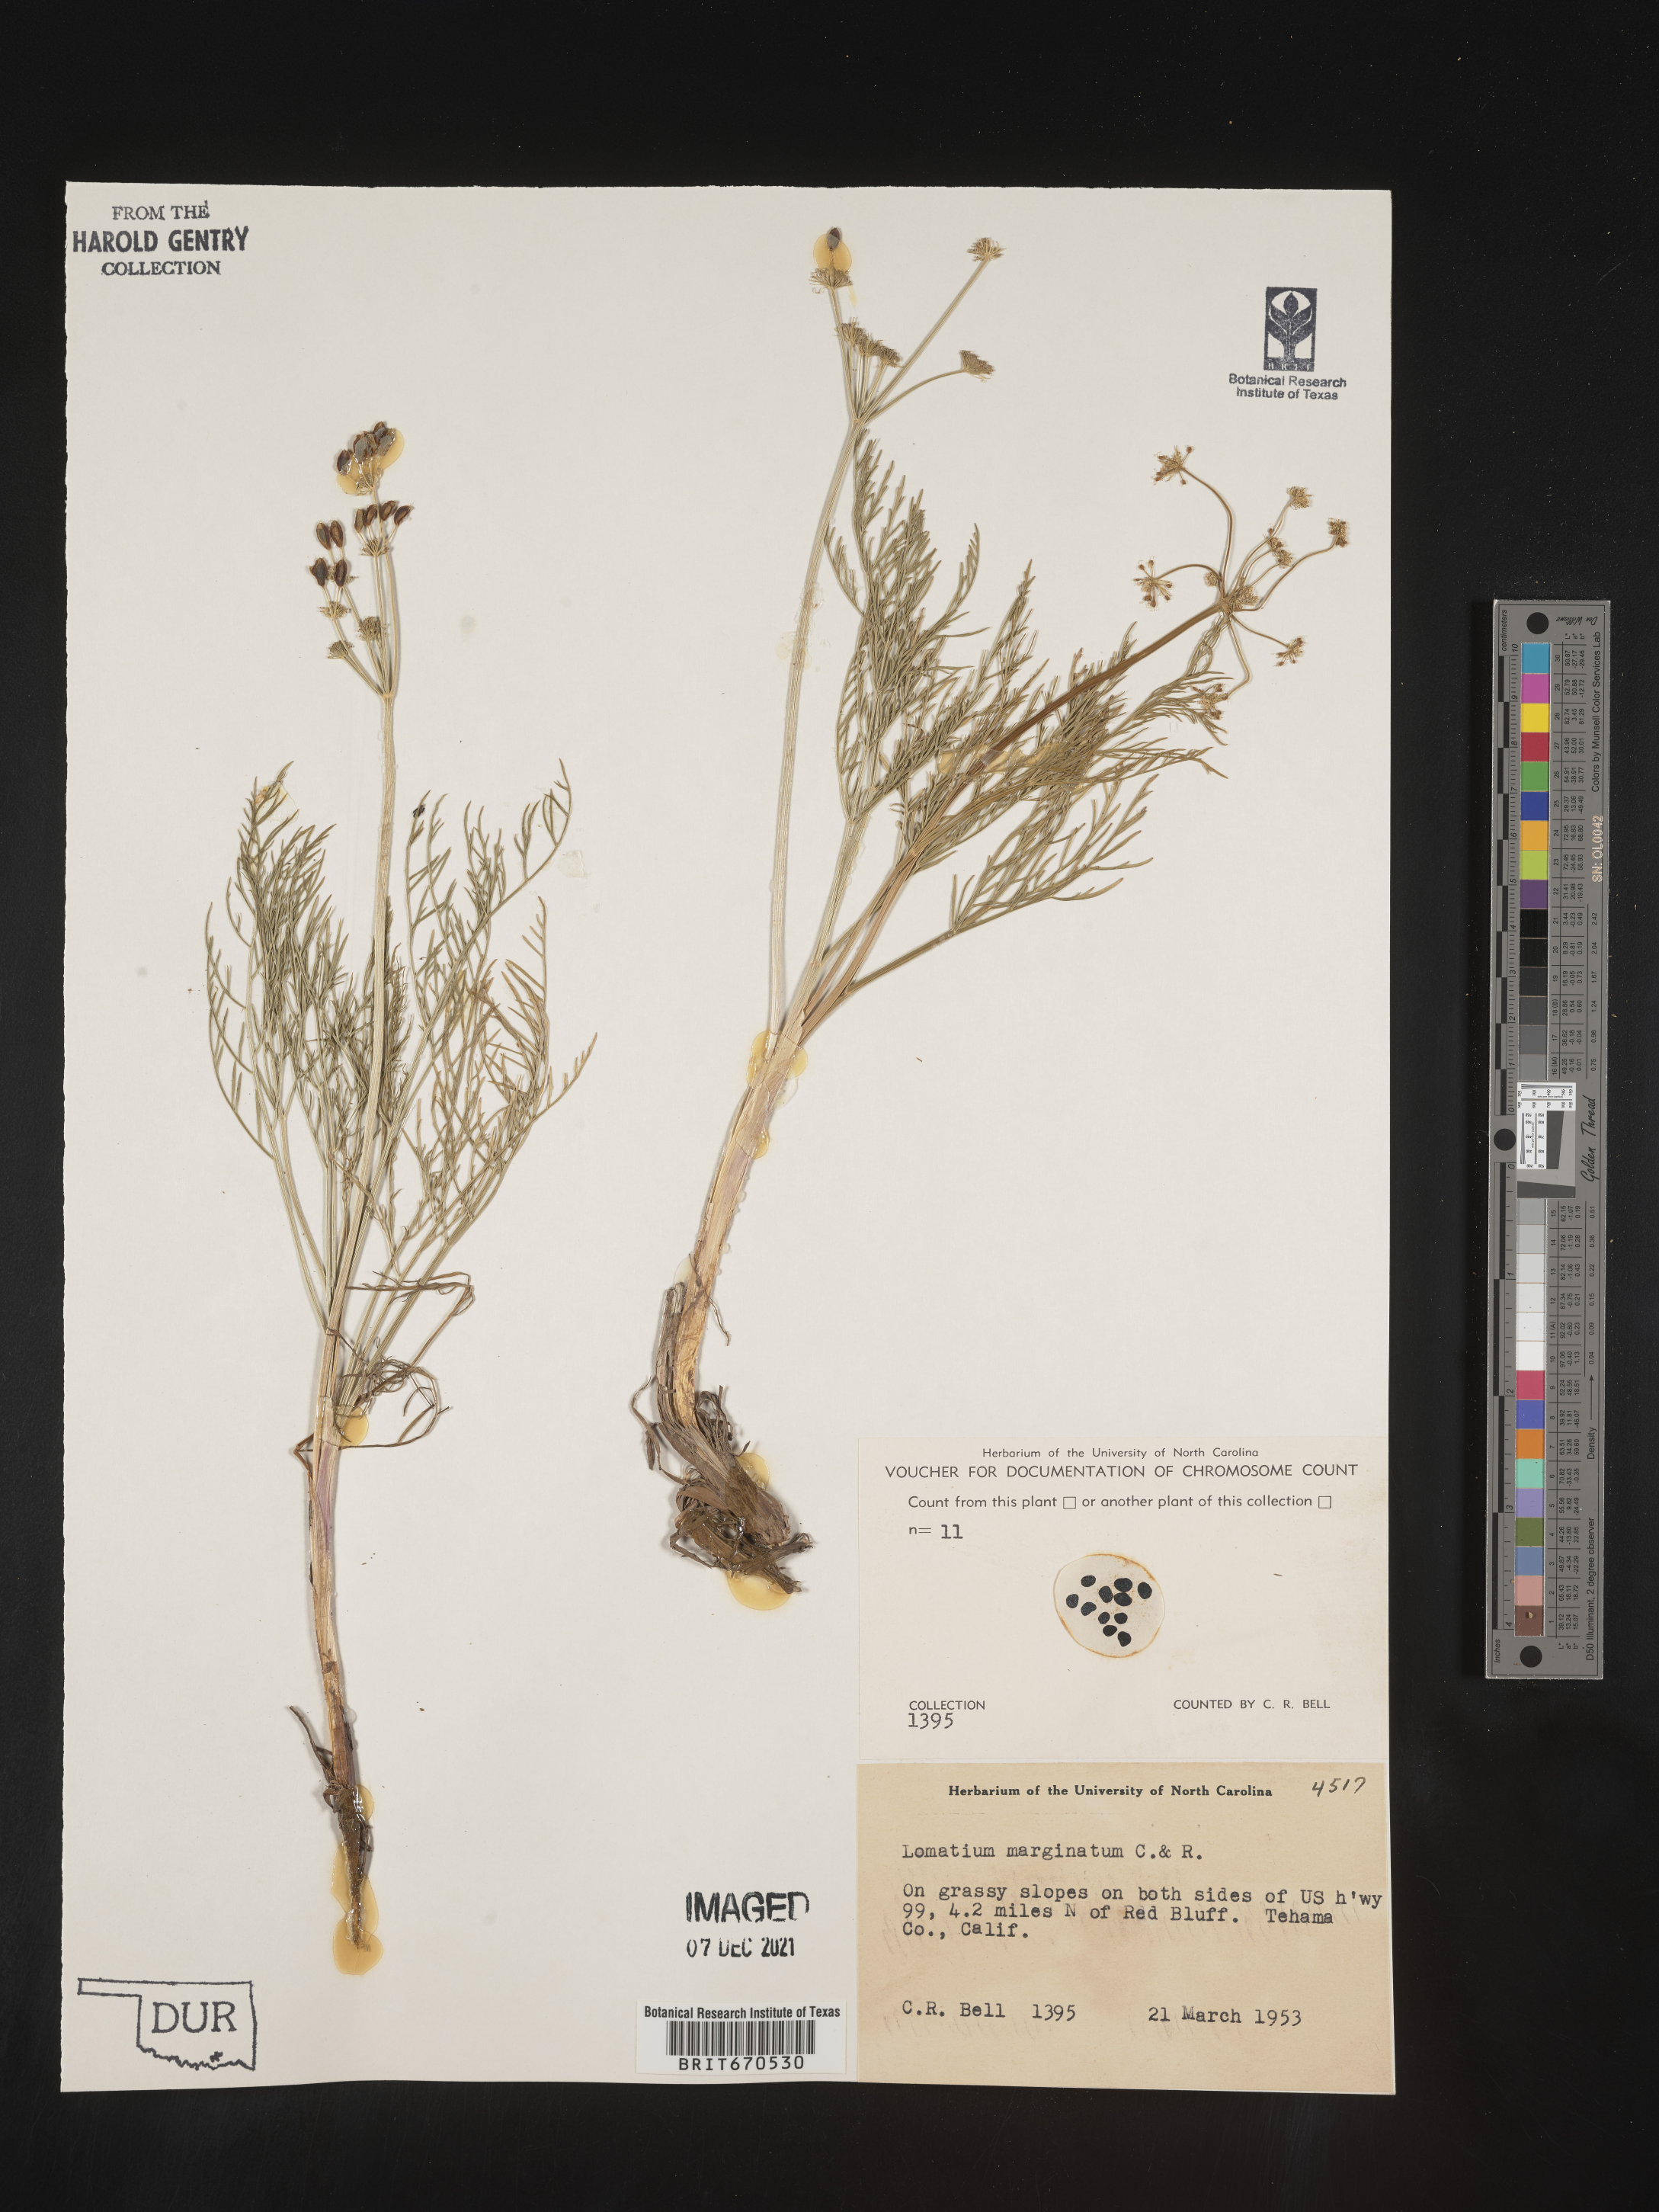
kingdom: Plantae
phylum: Tracheophyta
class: Magnoliopsida
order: Apiales
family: Apiaceae
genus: Lomatium
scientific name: Lomatium marginatum
